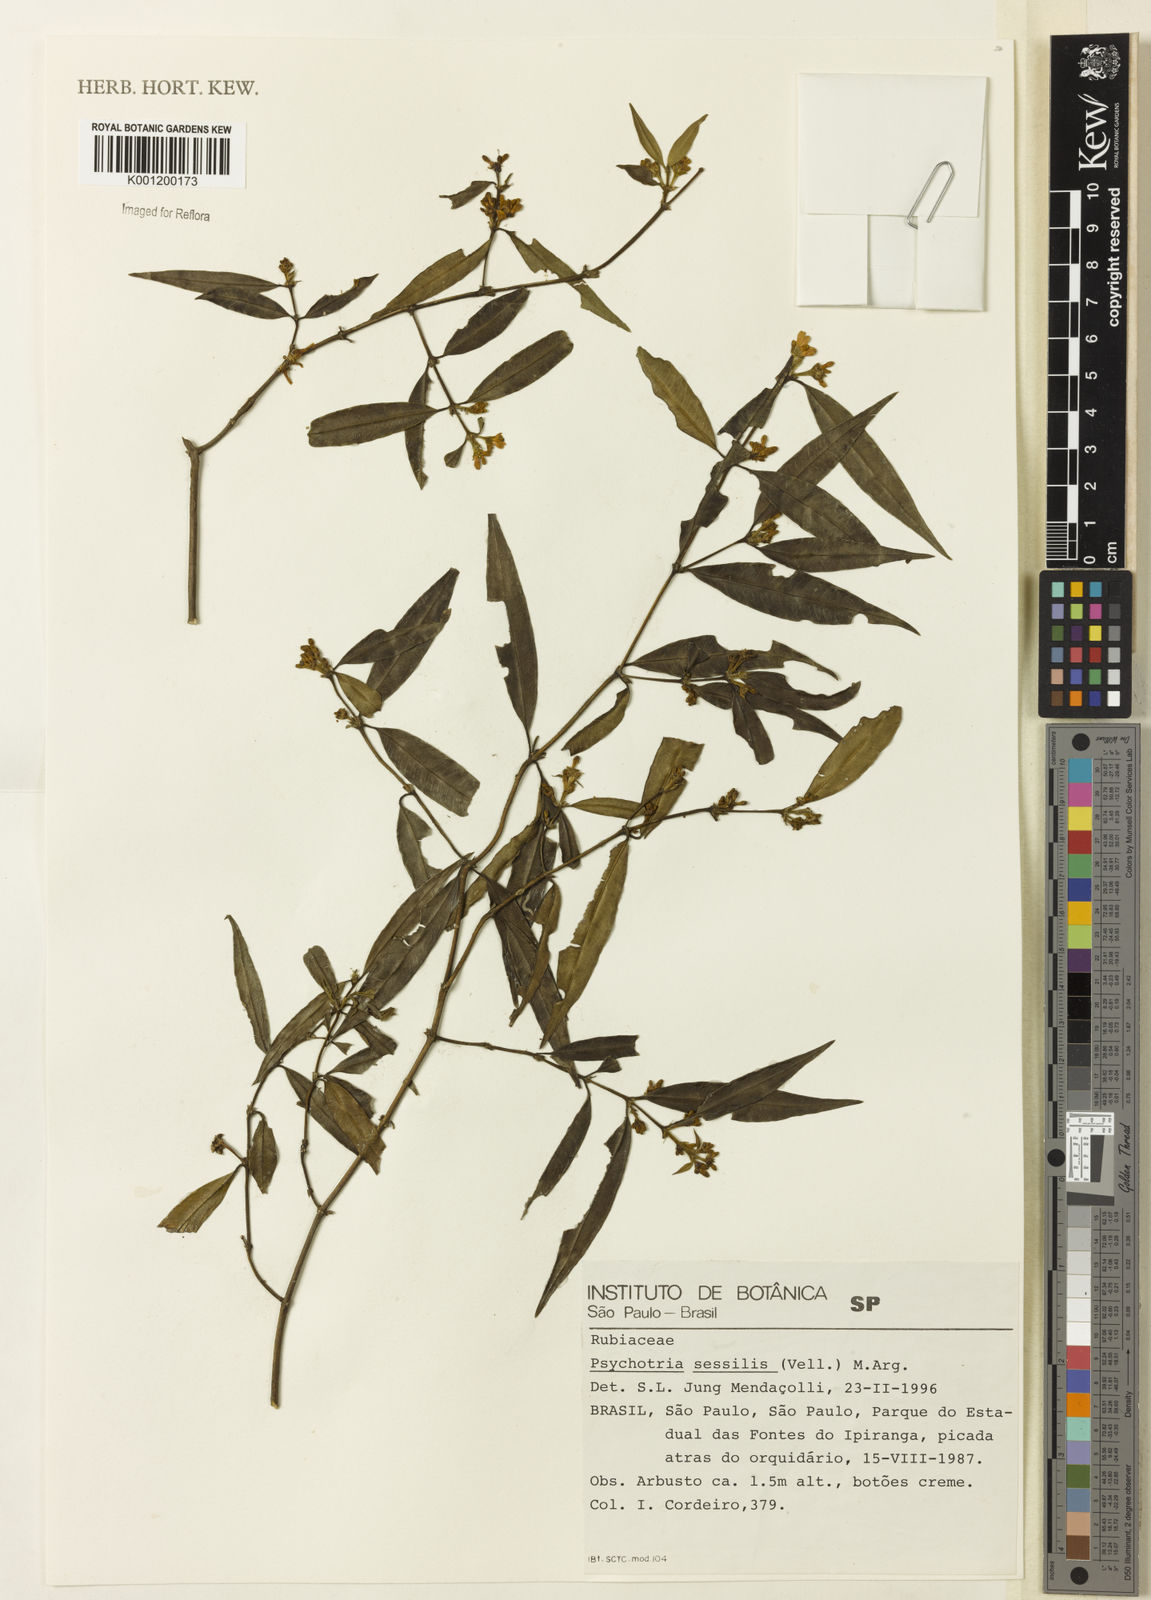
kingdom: Plantae
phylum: Tracheophyta
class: Magnoliopsida
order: Gentianales
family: Rubiaceae
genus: Rudgea
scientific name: Rudgea sessilis
